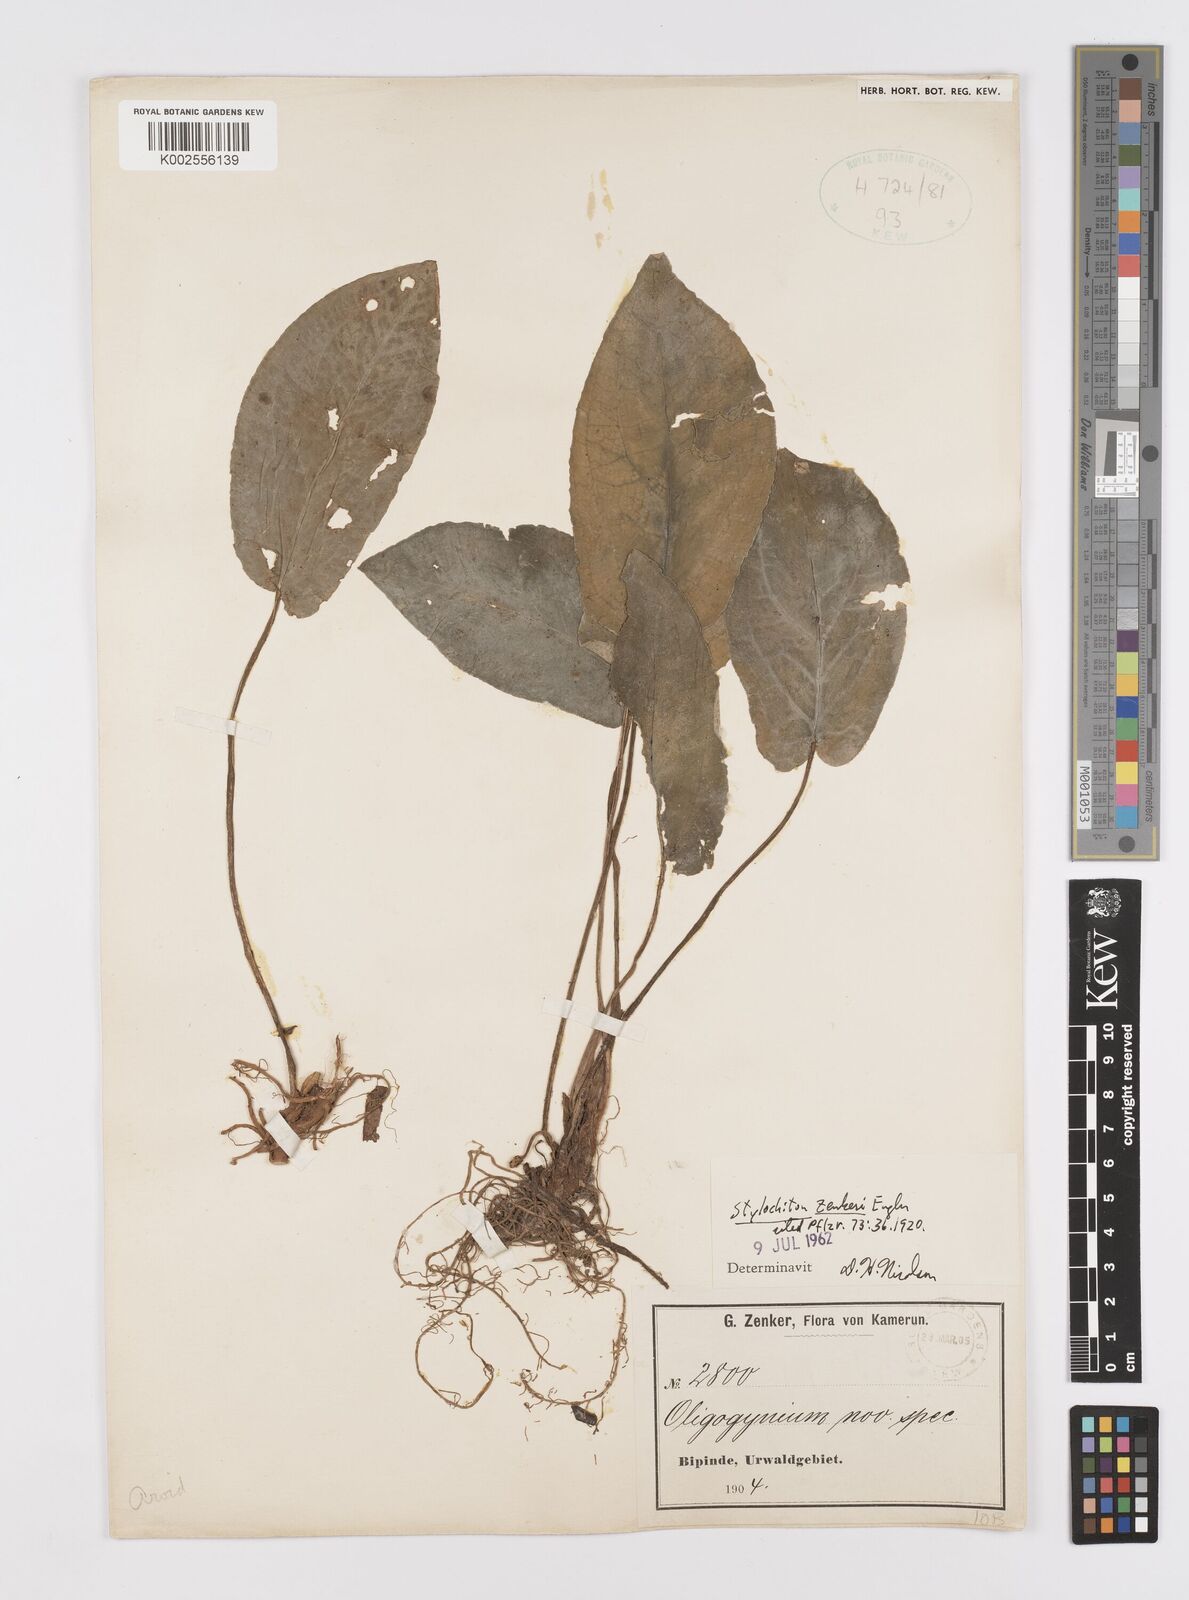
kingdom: Plantae
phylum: Tracheophyta
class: Liliopsida
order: Alismatales
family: Araceae
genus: Stylochaeton
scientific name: Stylochaeton zenkeri
